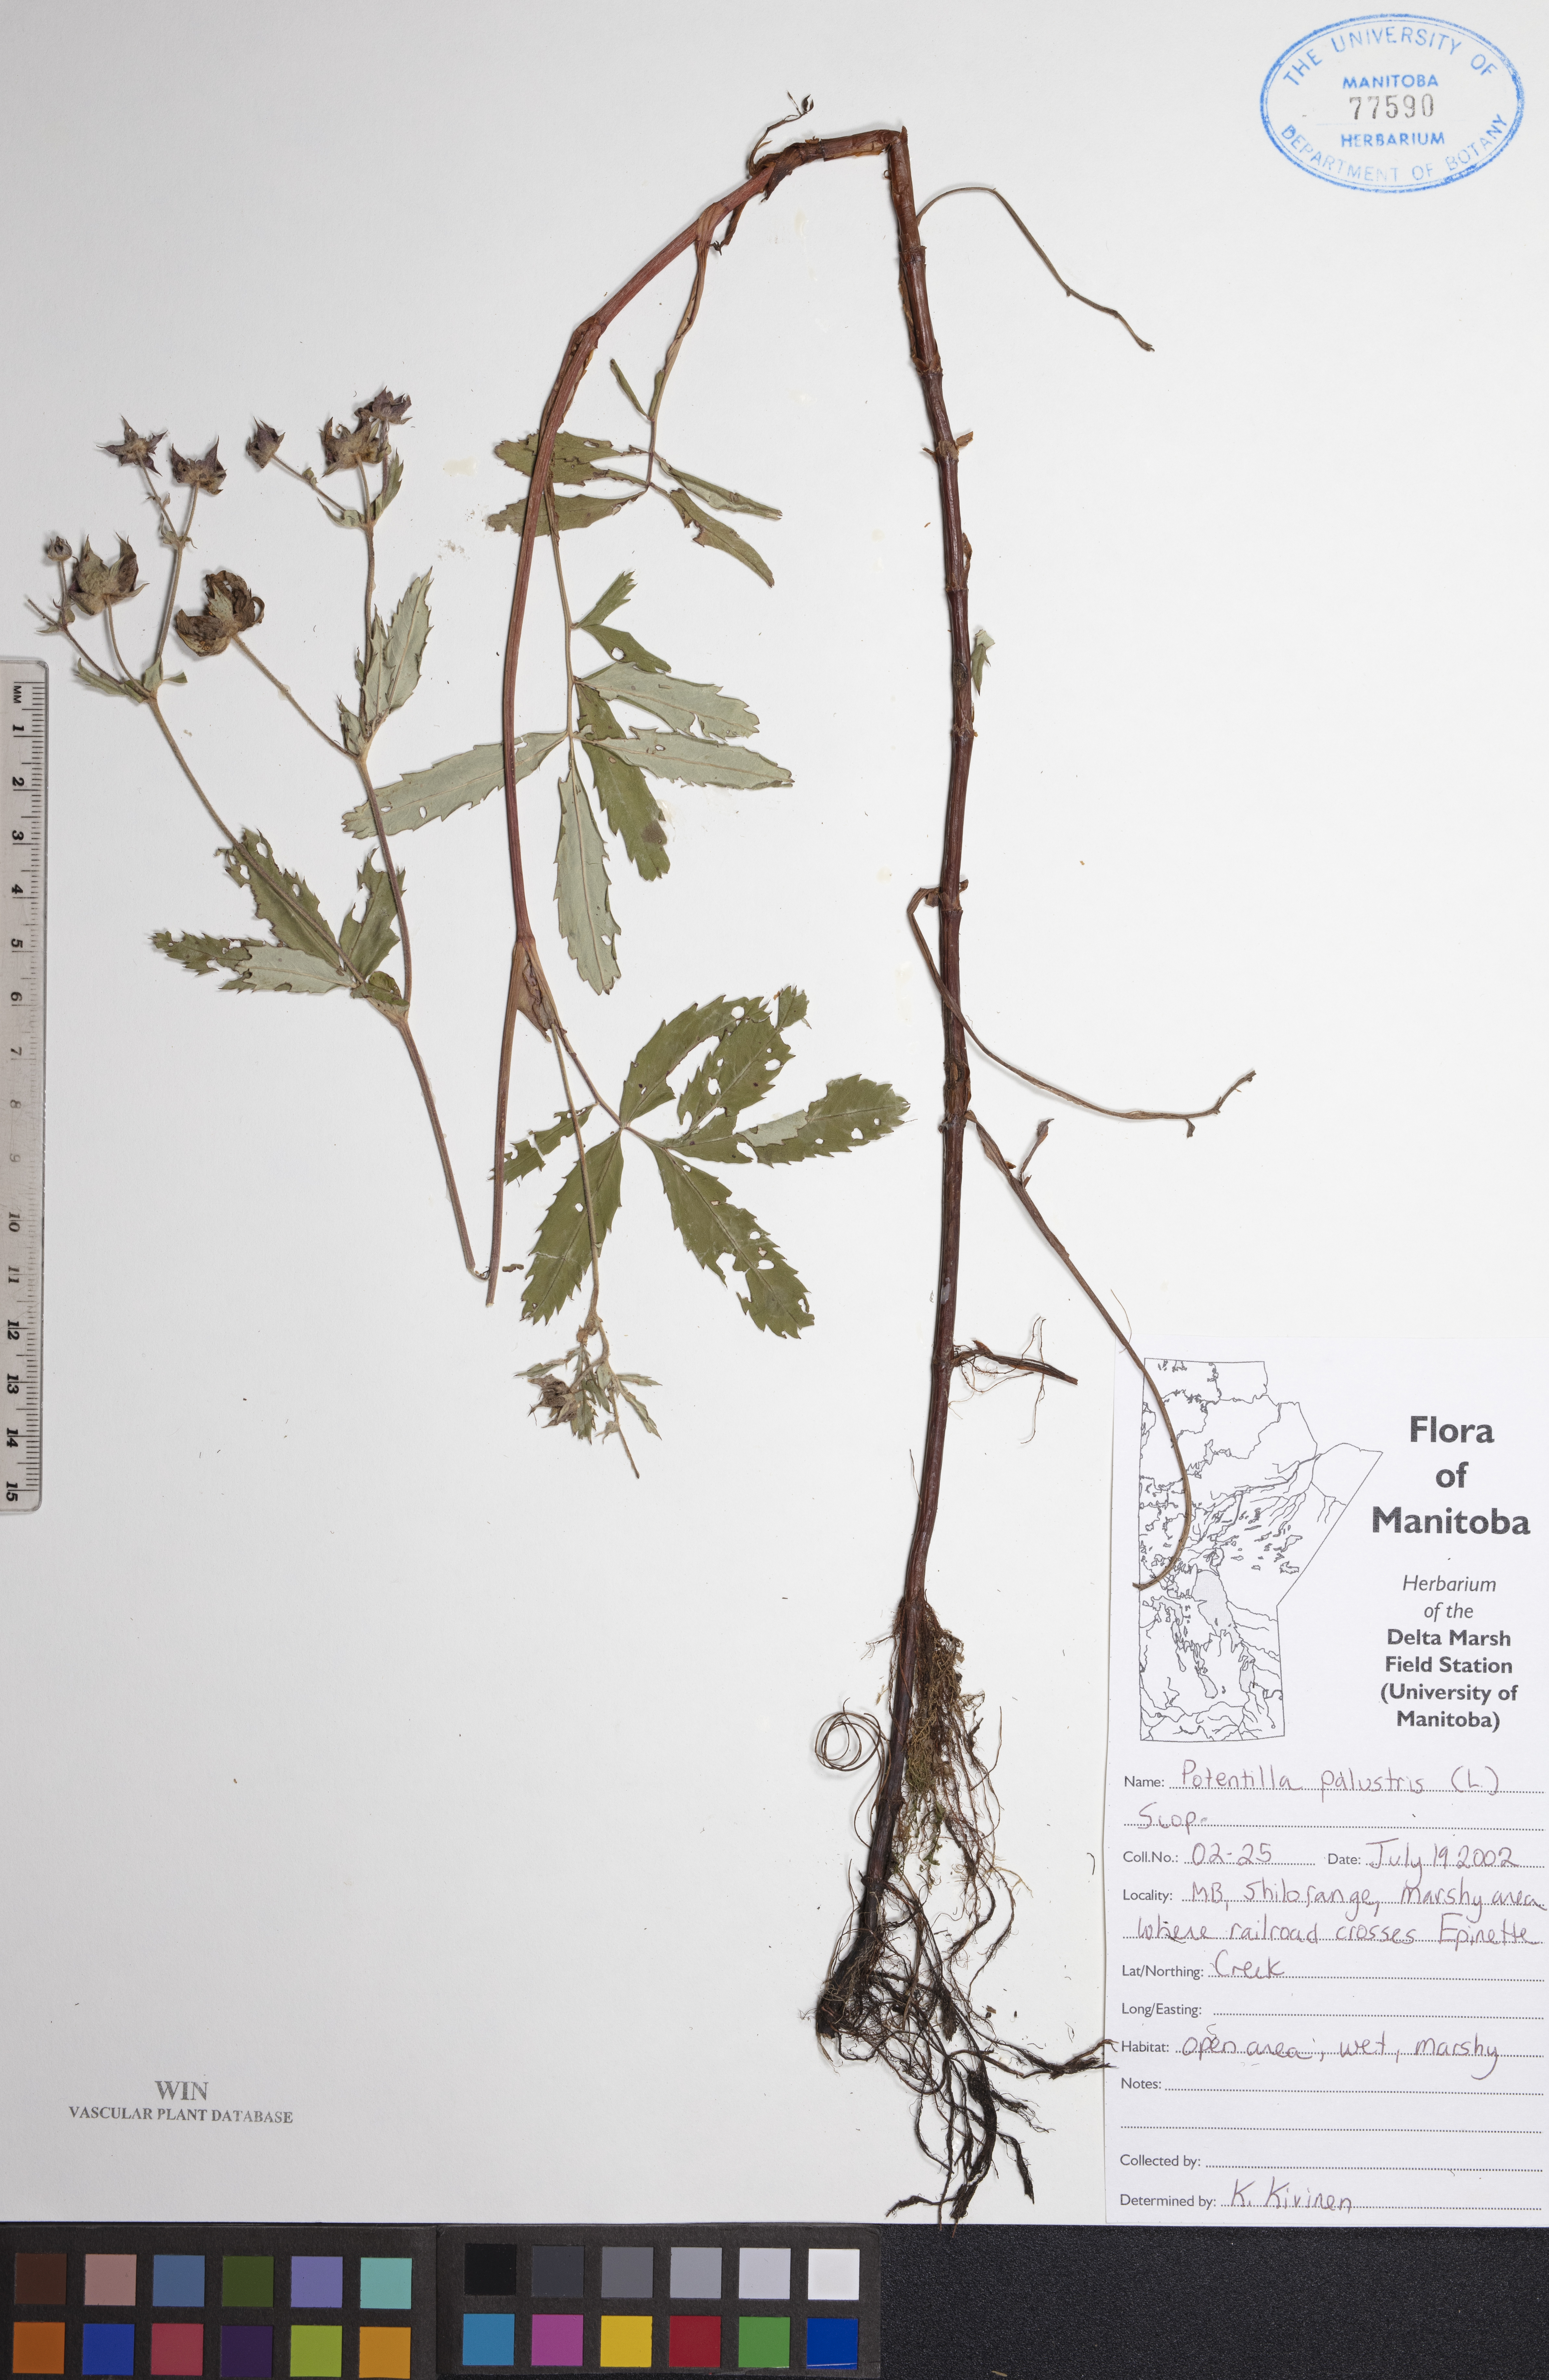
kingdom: Plantae
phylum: Tracheophyta
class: Magnoliopsida
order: Rosales
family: Rosaceae
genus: Comarum
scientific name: Comarum palustre
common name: Marsh cinquefoil
